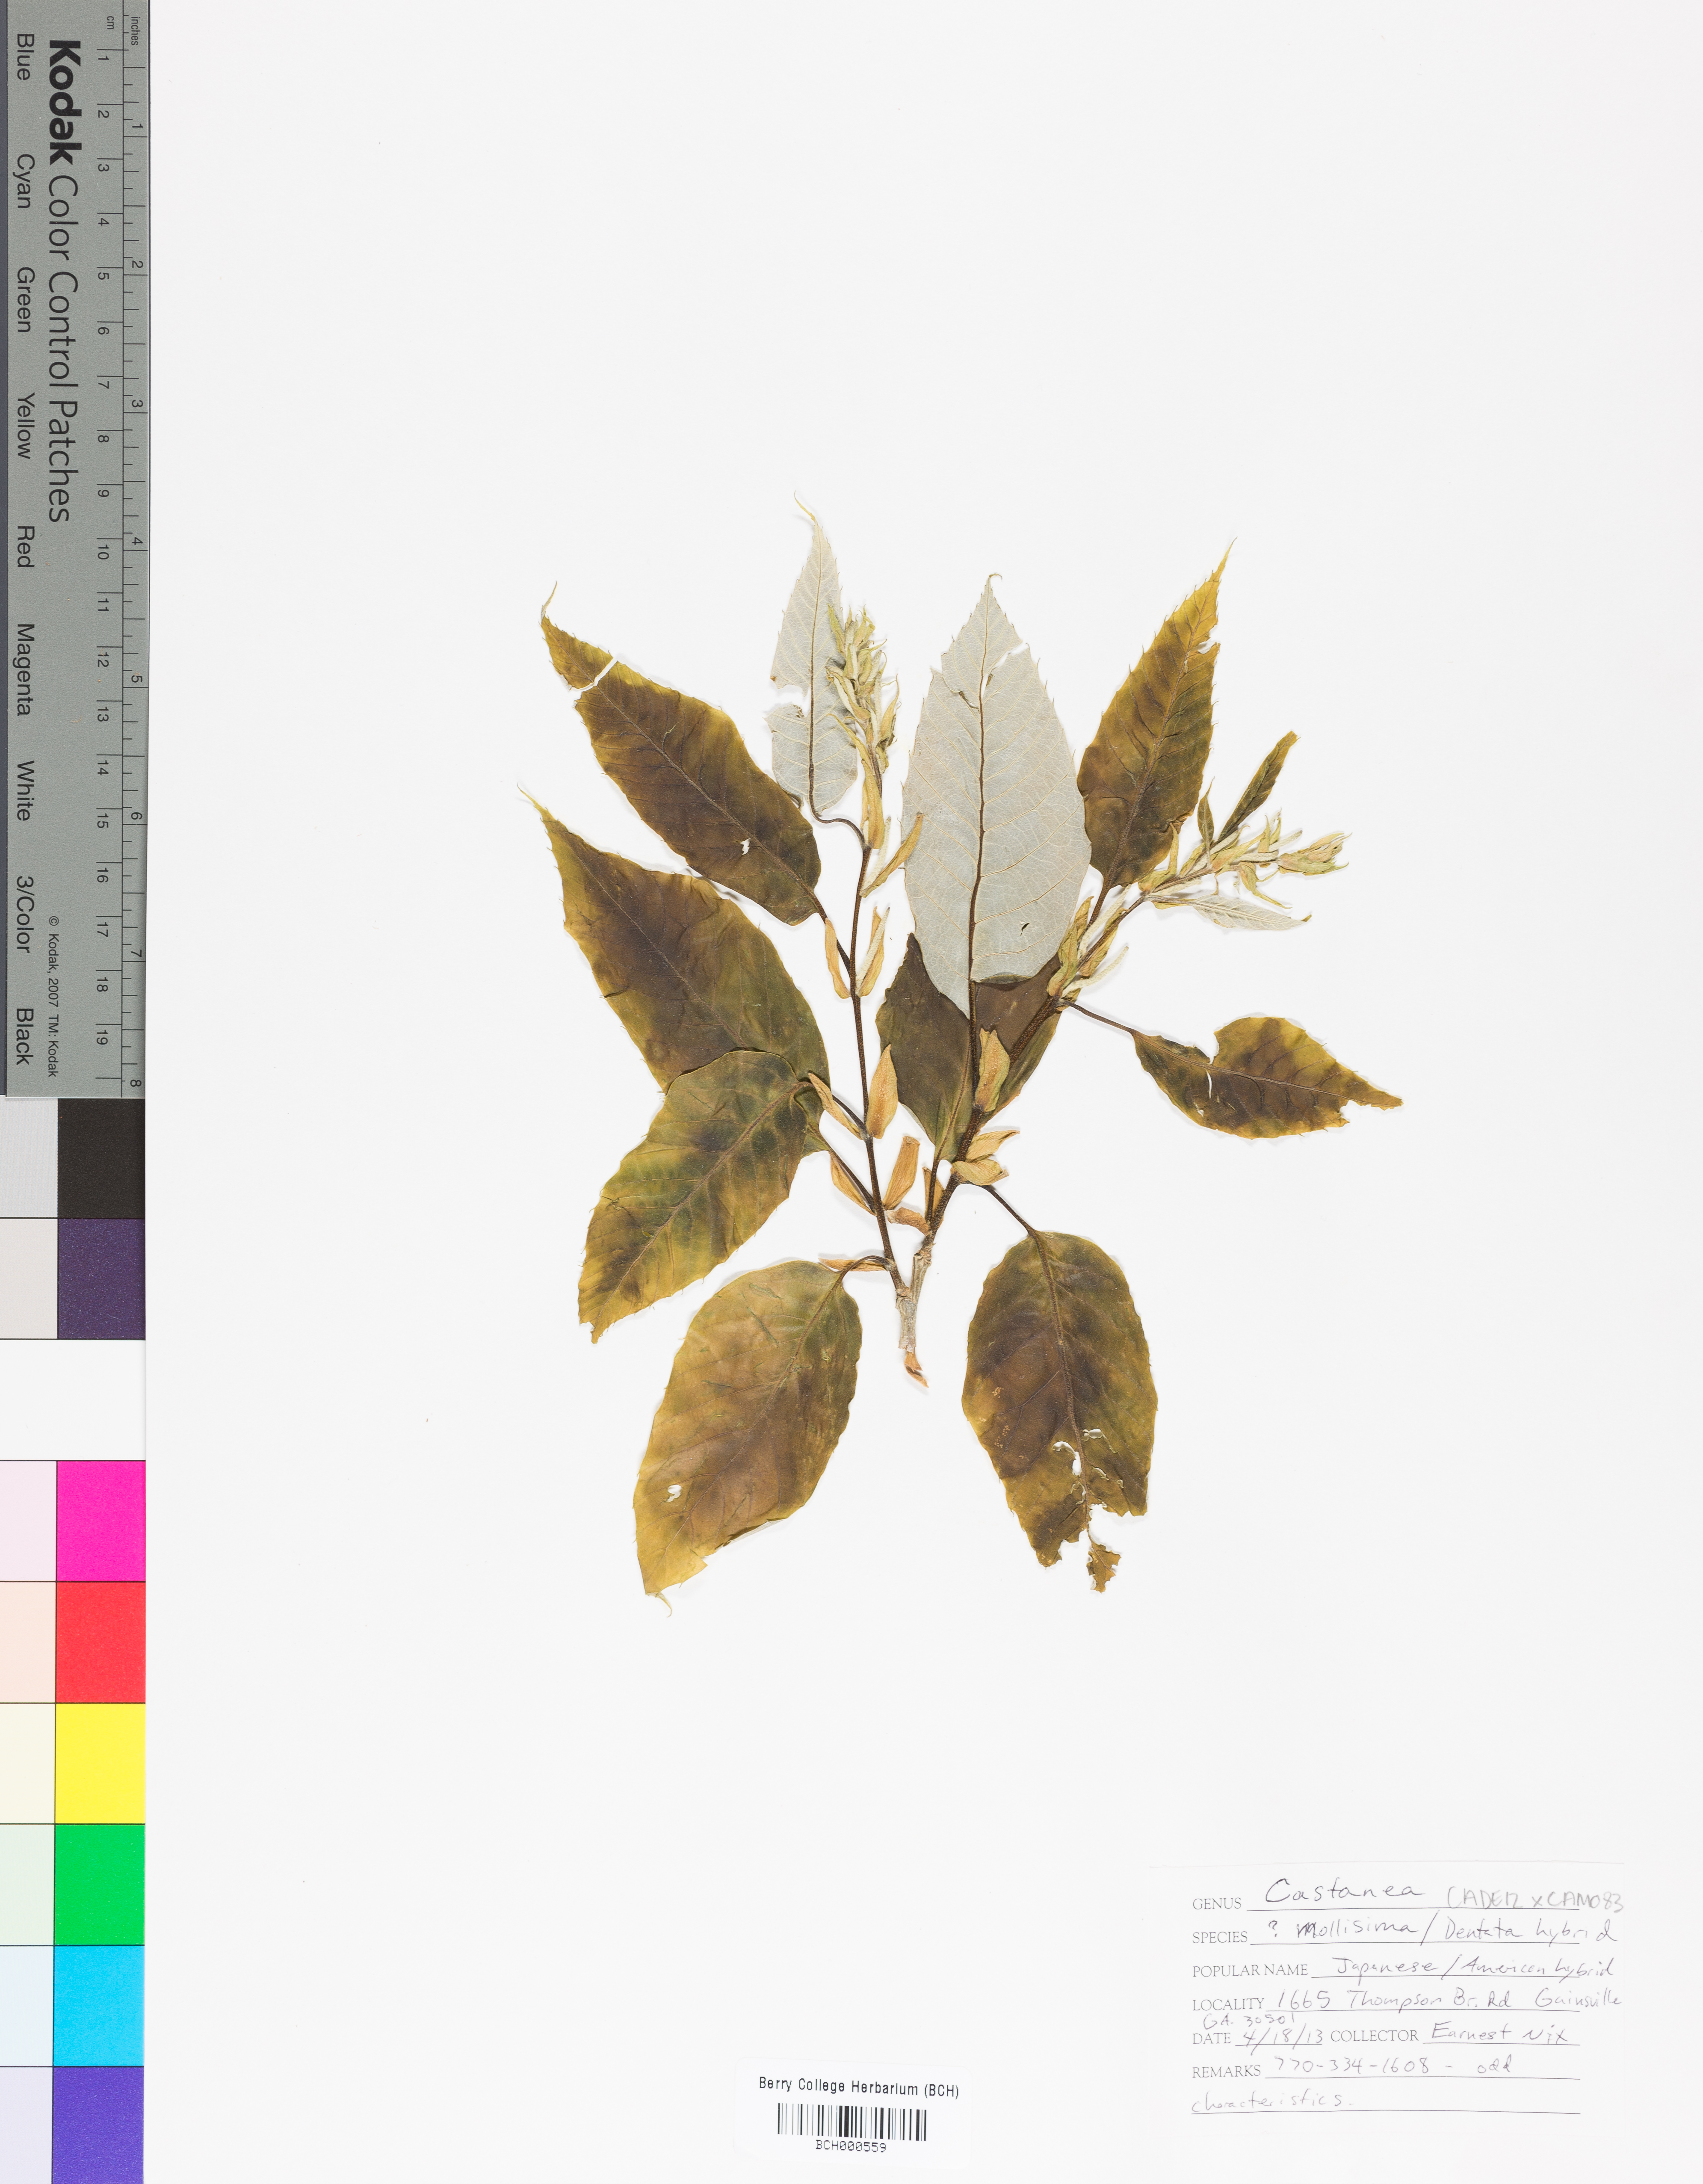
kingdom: Plantae
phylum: Tracheophyta
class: Magnoliopsida
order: Fagales
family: Fagaceae
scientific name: Fagaceae
